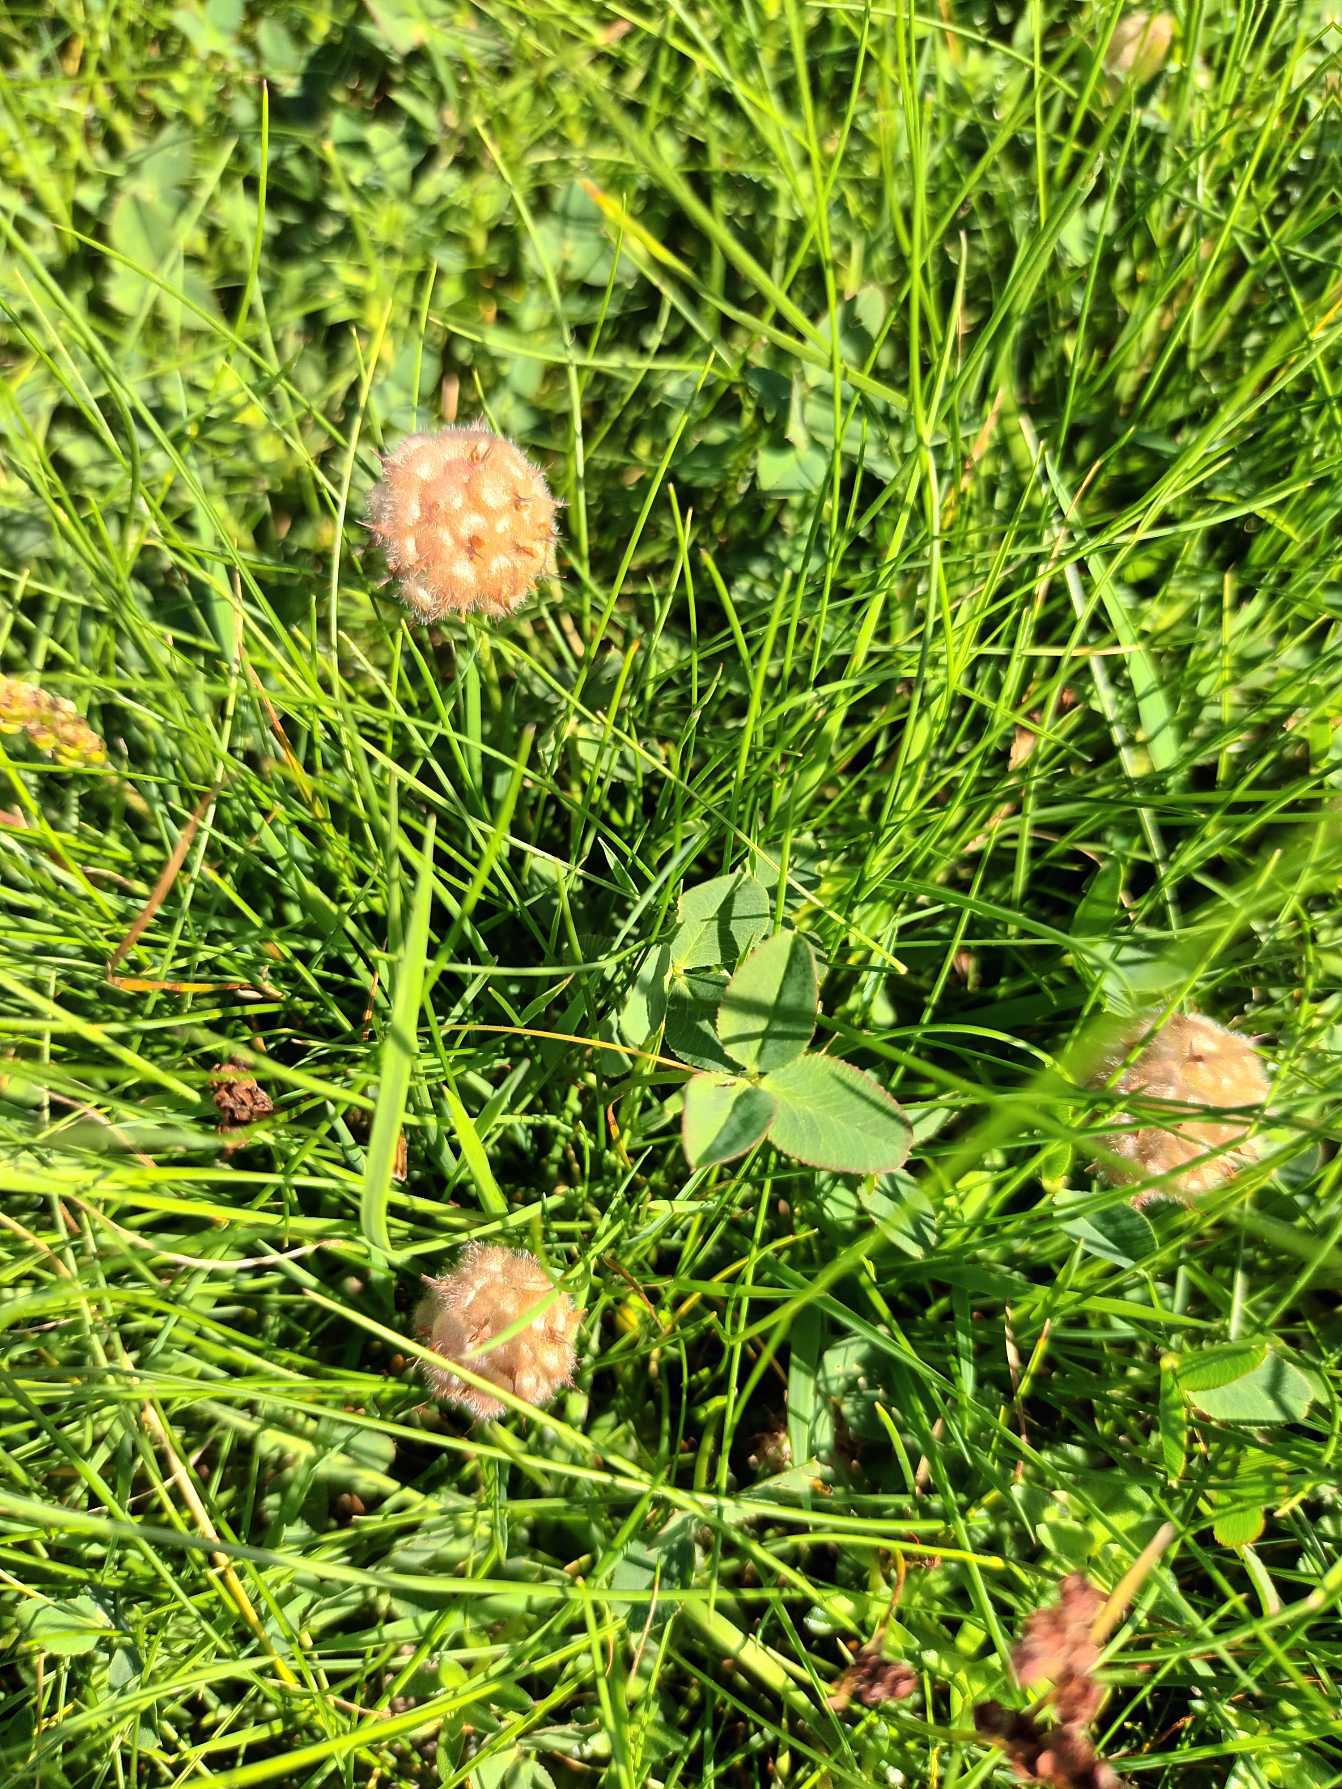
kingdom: Plantae
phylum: Tracheophyta
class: Magnoliopsida
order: Fabales
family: Fabaceae
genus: Trifolium
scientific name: Trifolium fragiferum
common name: Jordbær-kløver
